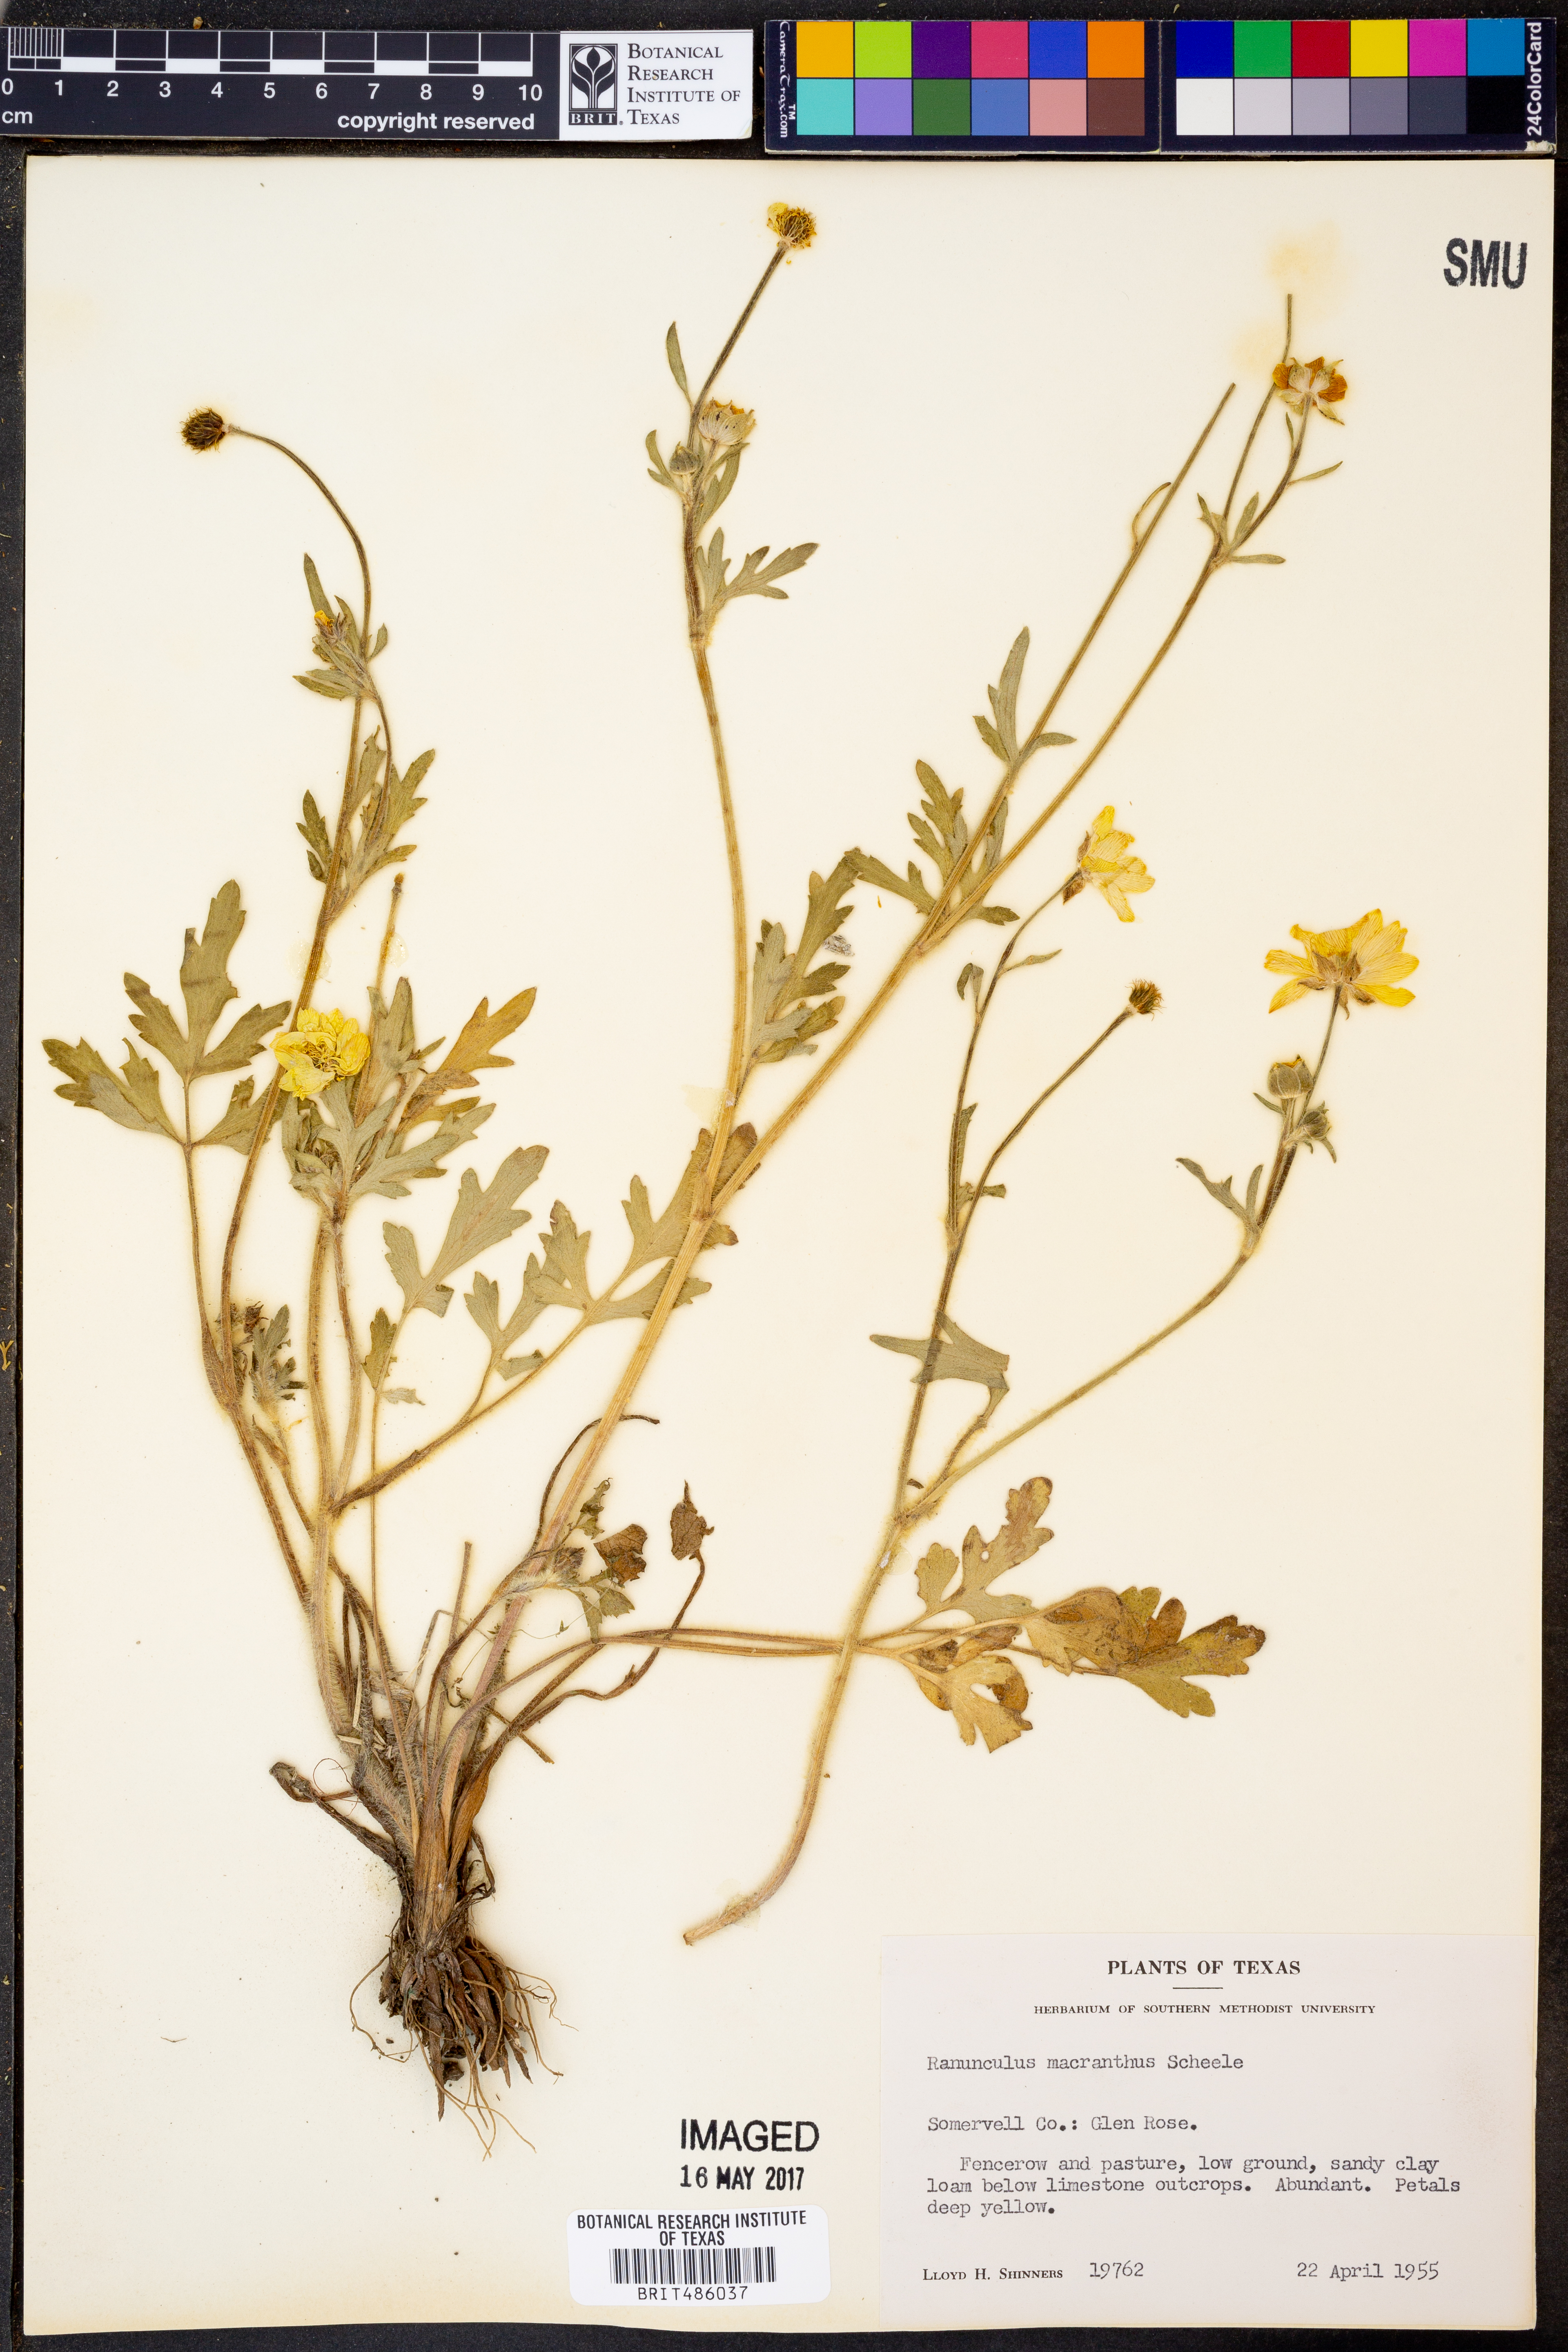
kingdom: Plantae
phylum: Tracheophyta
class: Magnoliopsida
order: Ranunculales
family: Ranunculaceae
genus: Ranunculus
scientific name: Ranunculus macranthus
